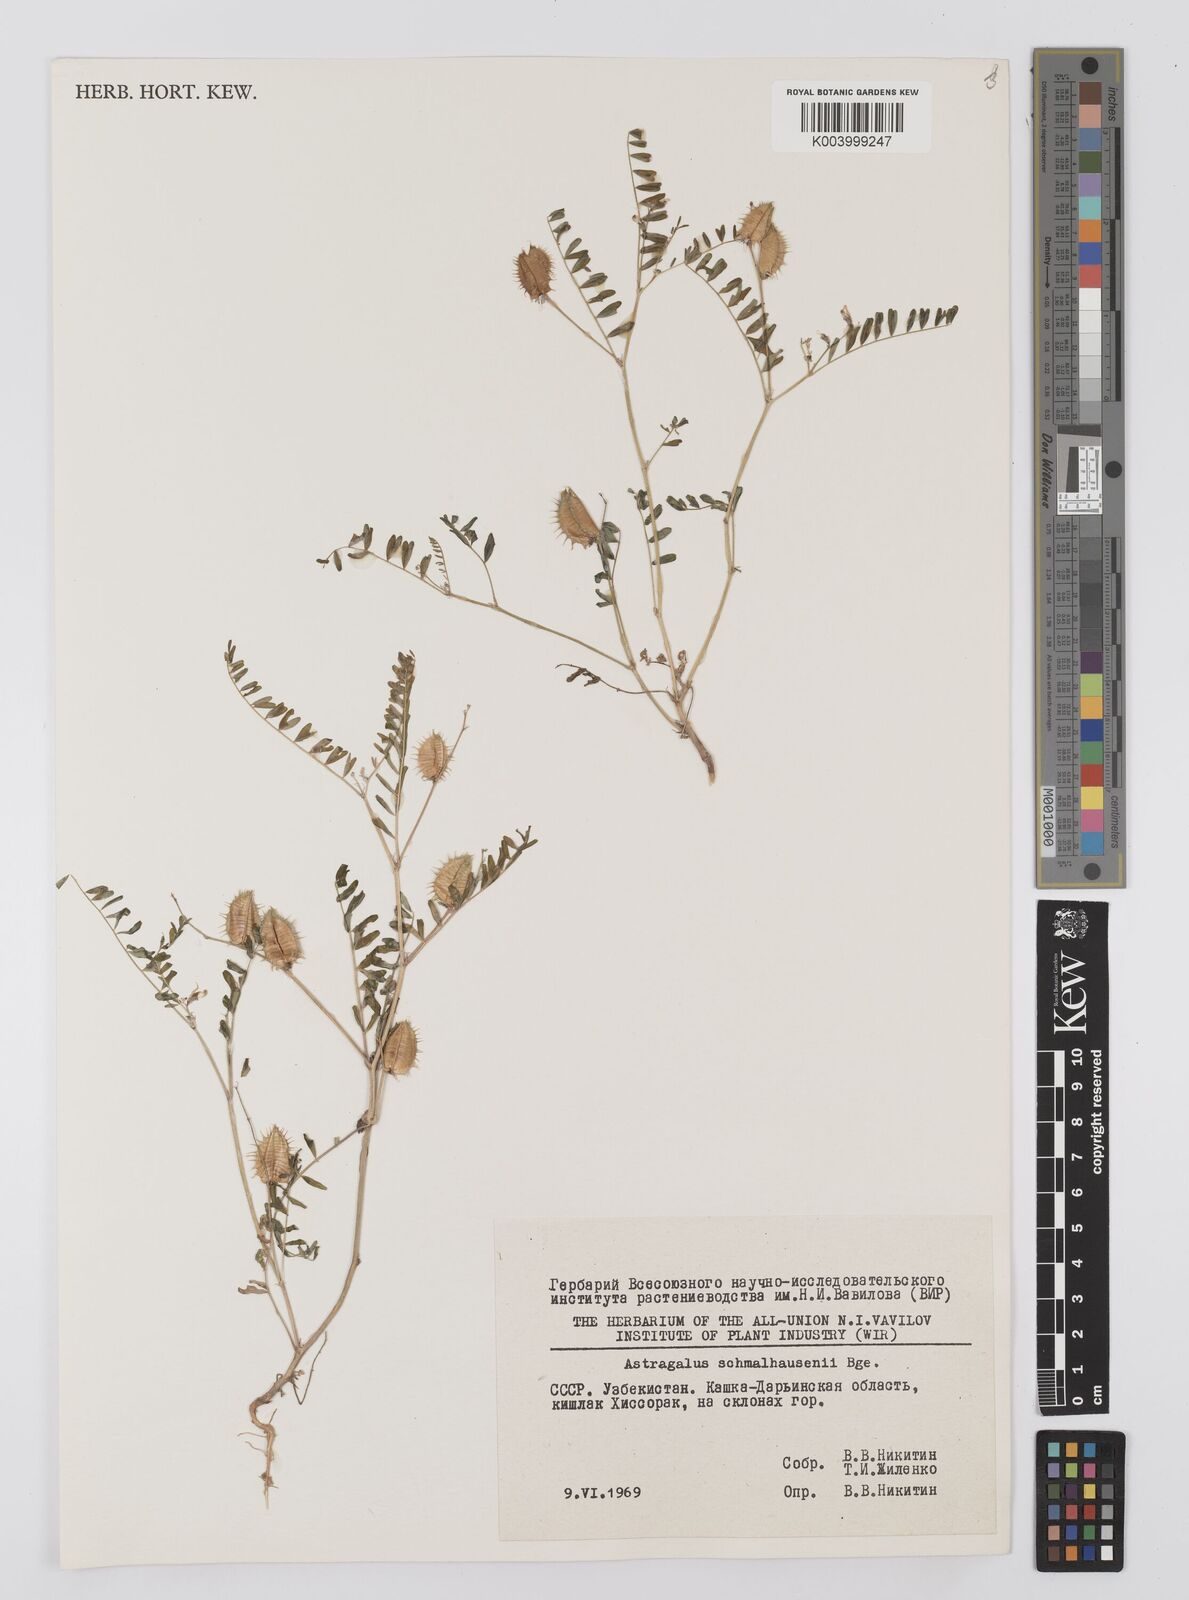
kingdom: Plantae
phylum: Tracheophyta
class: Magnoliopsida
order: Fabales
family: Fabaceae
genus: Astragalus
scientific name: Astragalus schmalhausenii
